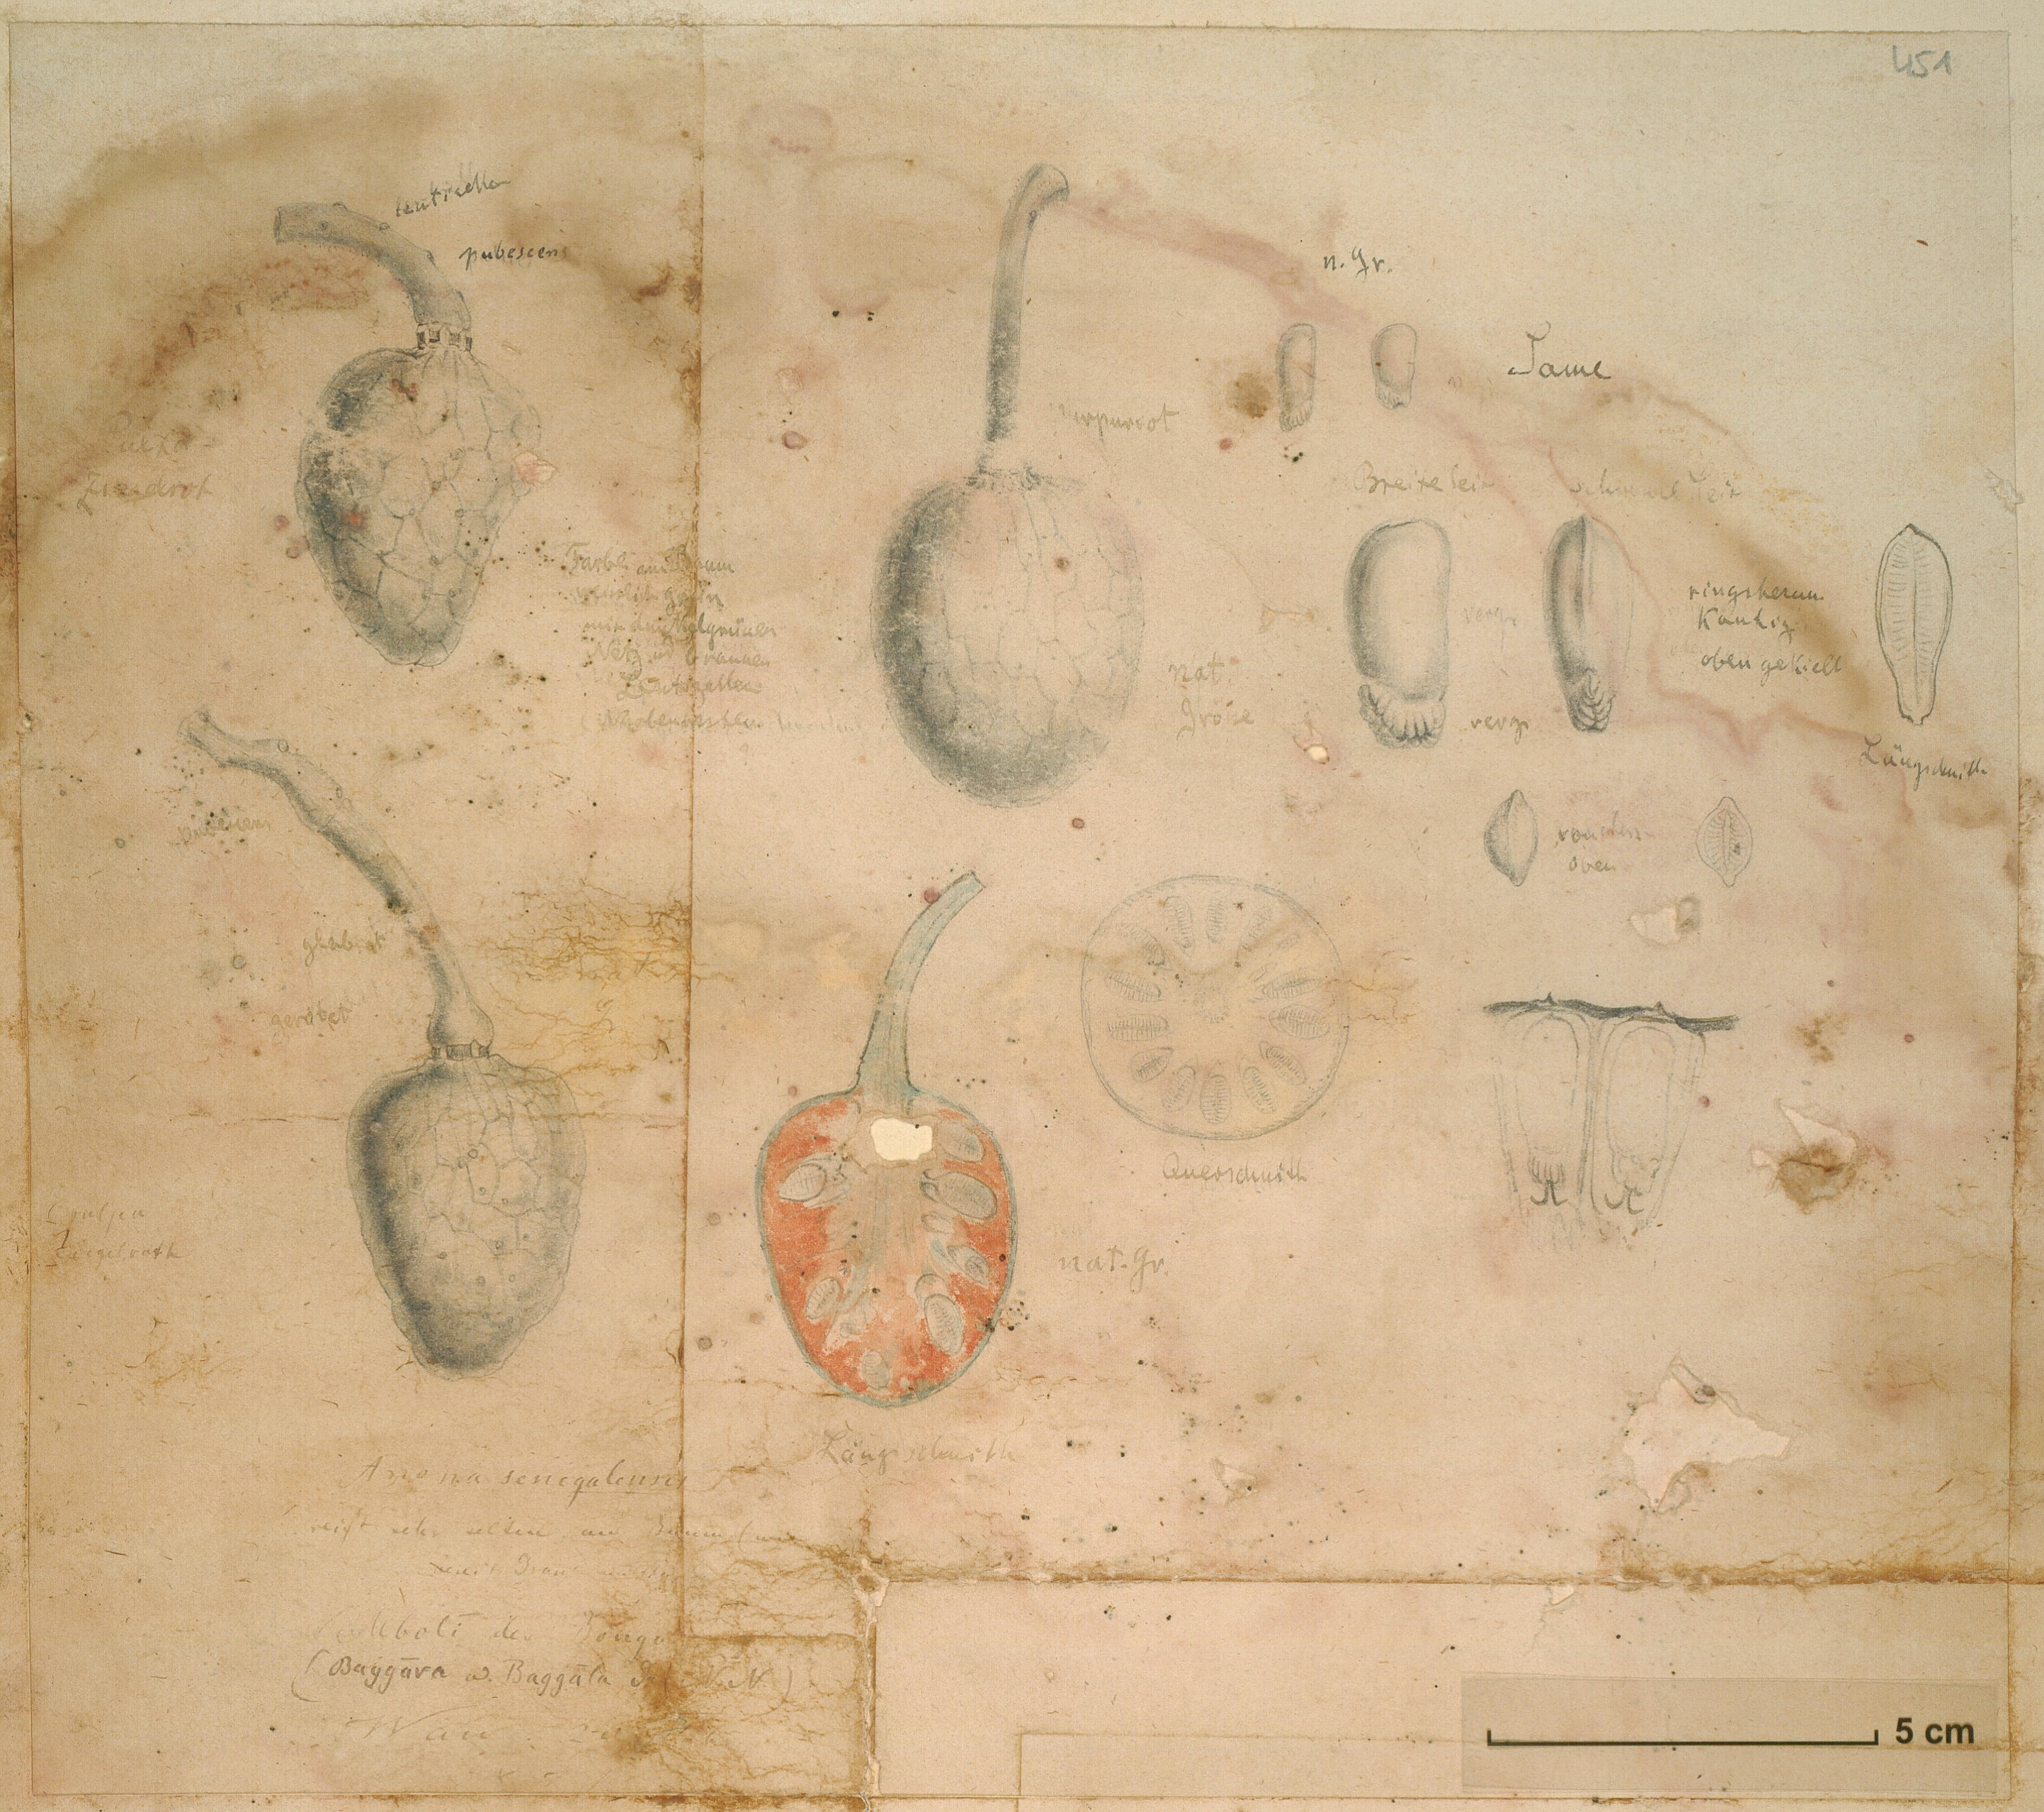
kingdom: Plantae
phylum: Tracheophyta
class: Magnoliopsida
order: Magnoliales
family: Annonaceae
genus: Annona
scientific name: Annona senegalensis
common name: Wild custard-apple
